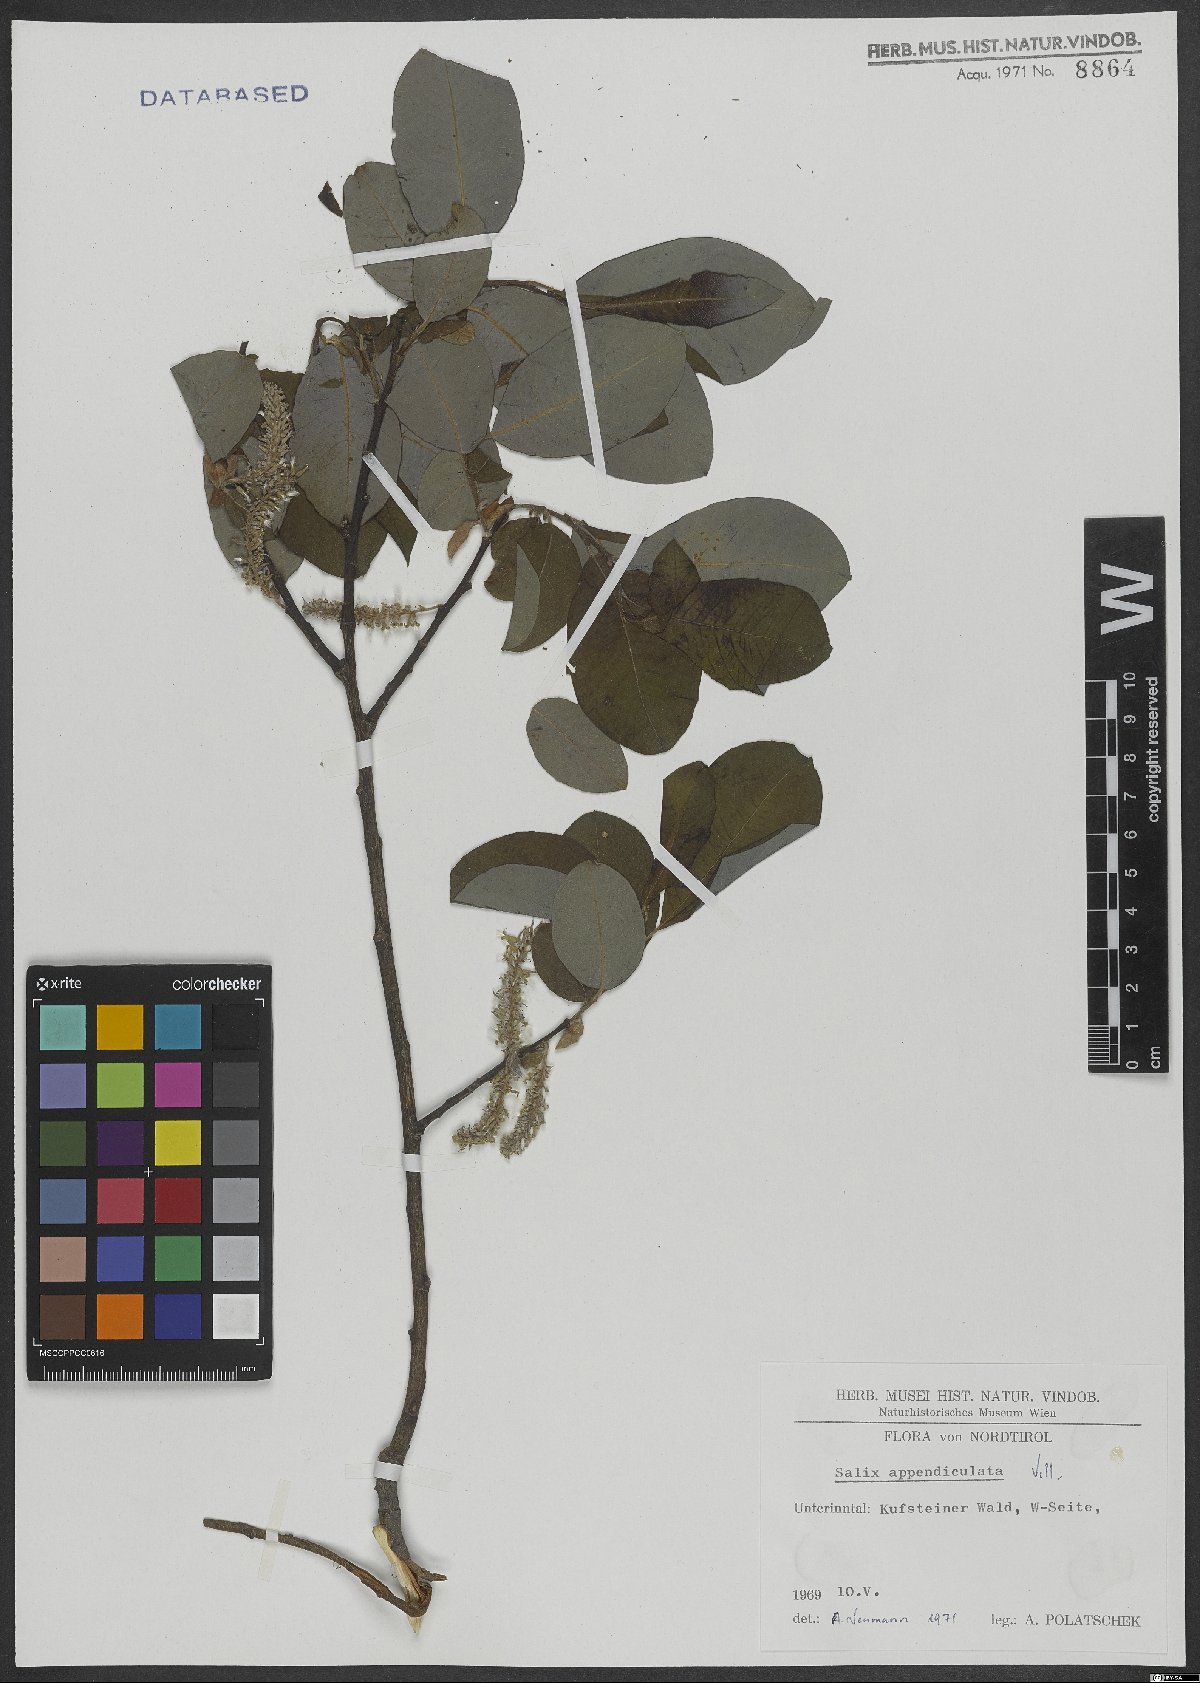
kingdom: Plantae
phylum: Tracheophyta
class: Magnoliopsida
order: Malpighiales
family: Salicaceae
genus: Salix
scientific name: Salix appendiculata
